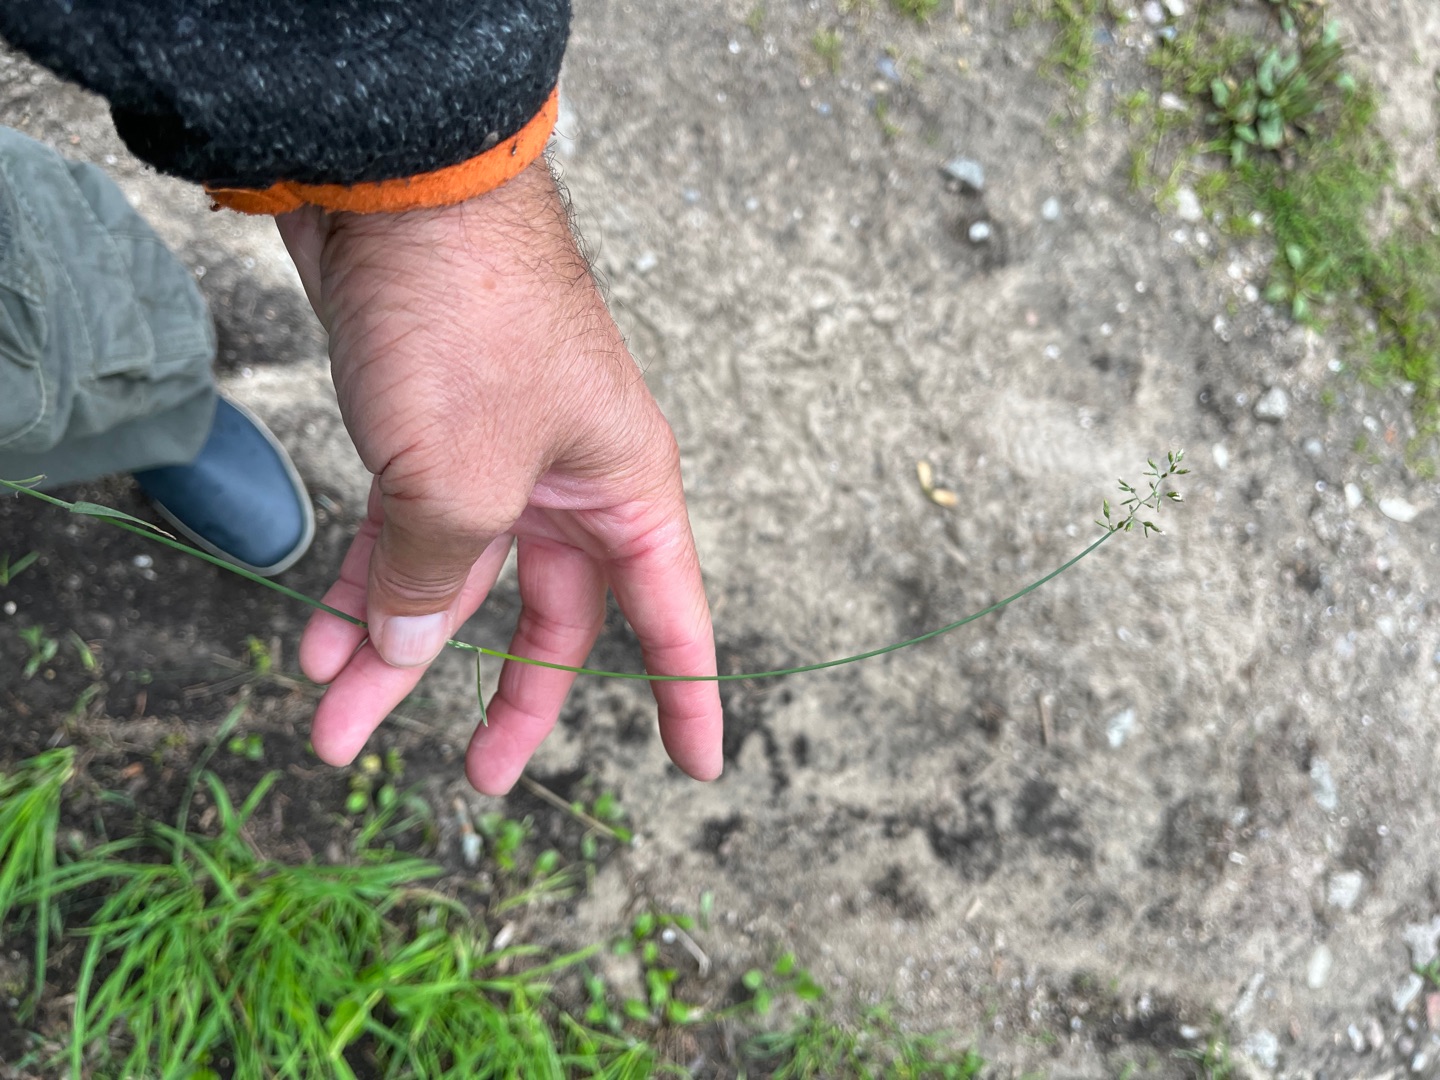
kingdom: Plantae
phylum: Tracheophyta
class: Liliopsida
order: Poales
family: Poaceae
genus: Poa
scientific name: Poa compressa
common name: Fladstrået rapgræs
